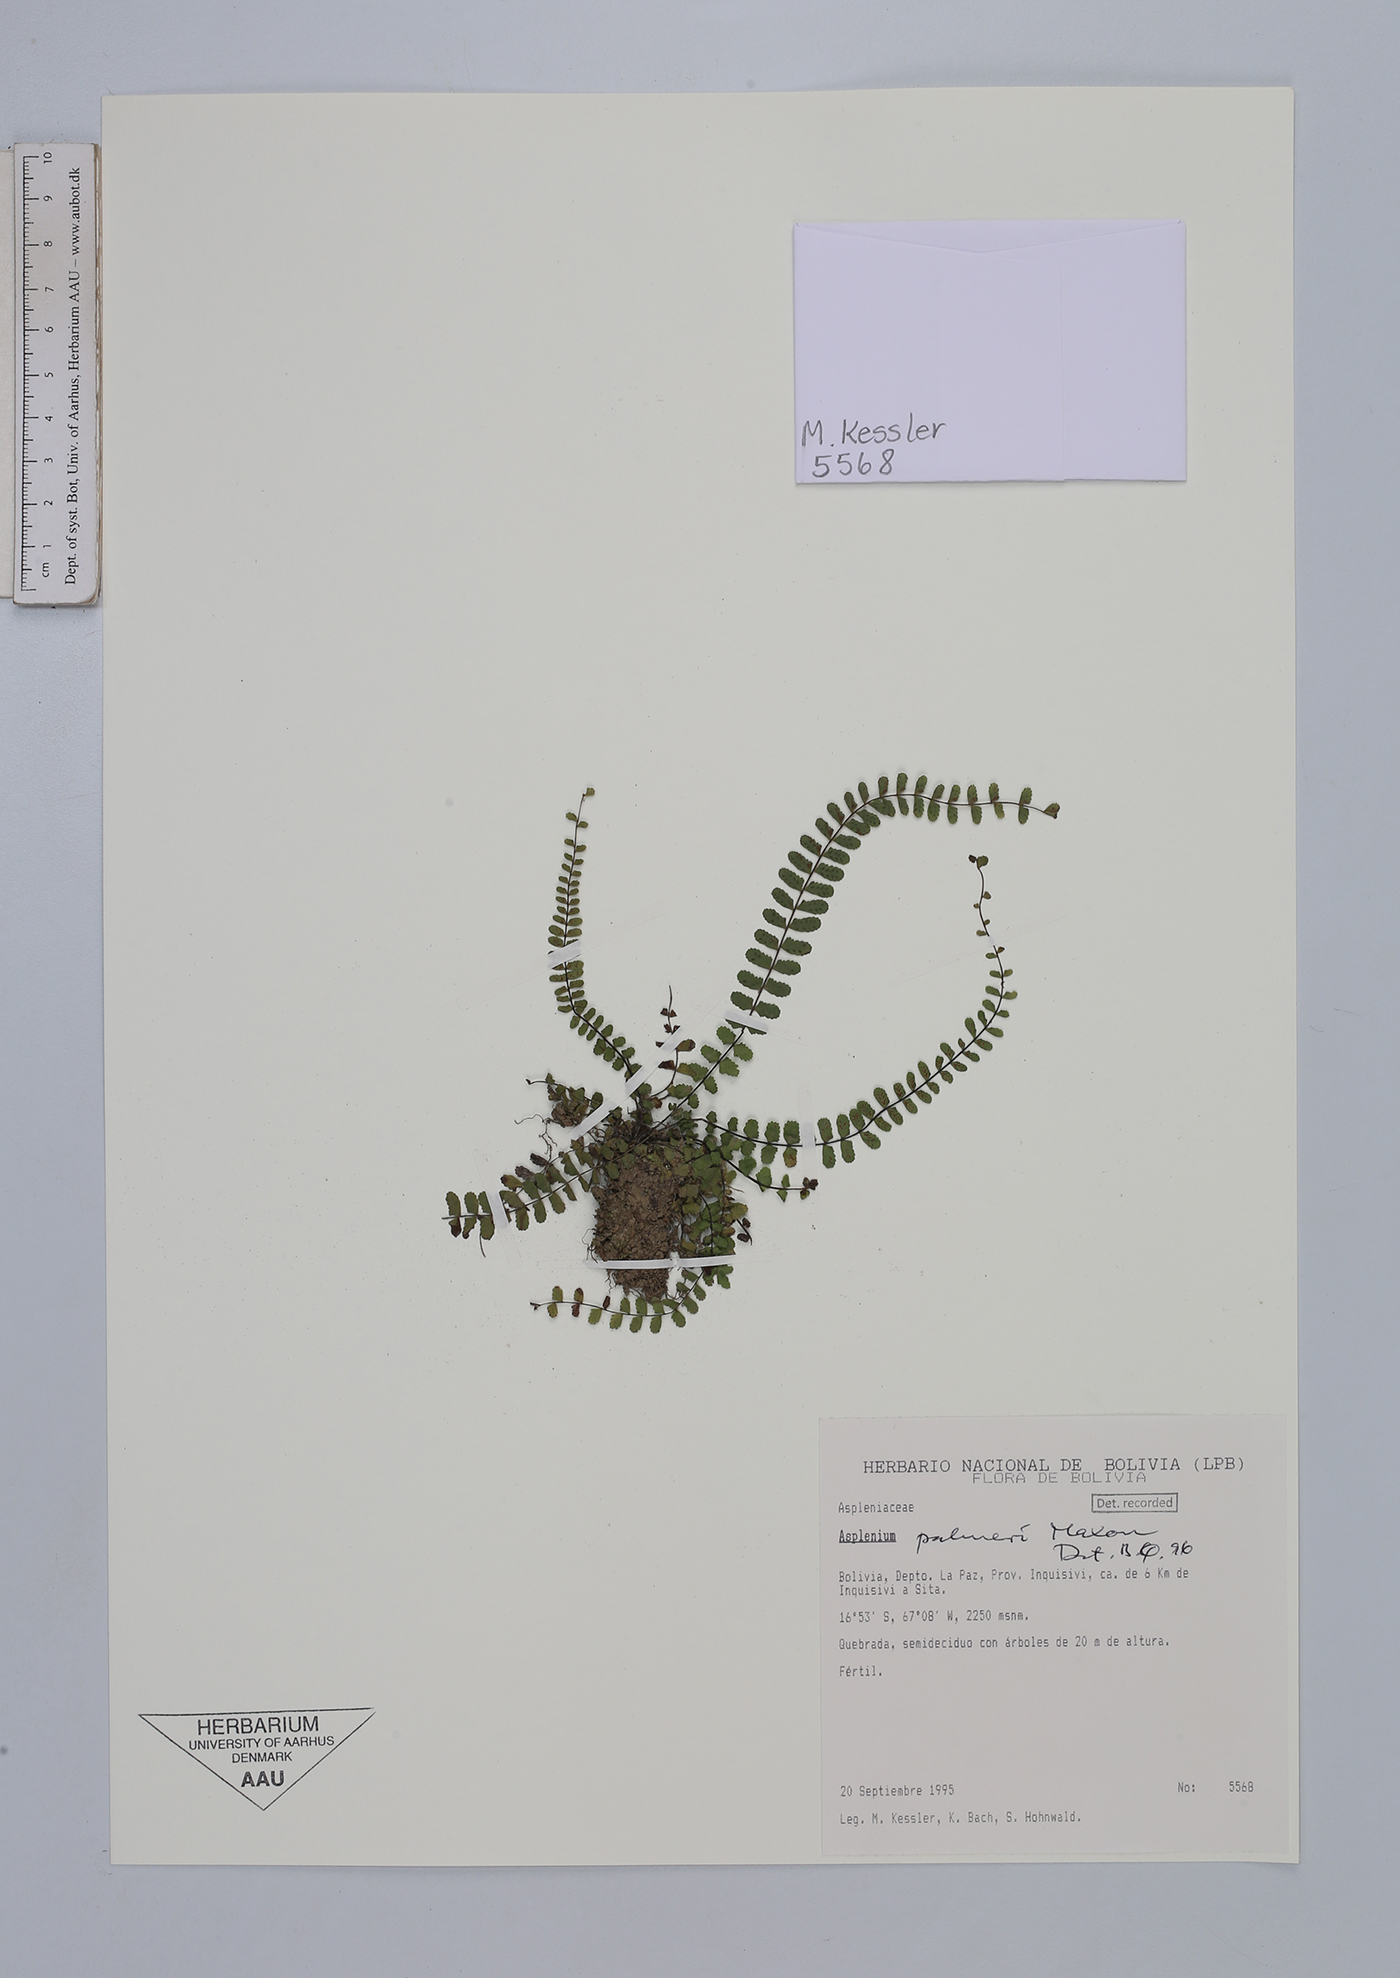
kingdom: Plantae
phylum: Tracheophyta
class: Polypodiopsida
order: Polypodiales
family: Aspleniaceae
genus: Asplenium
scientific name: Asplenium palmeri
